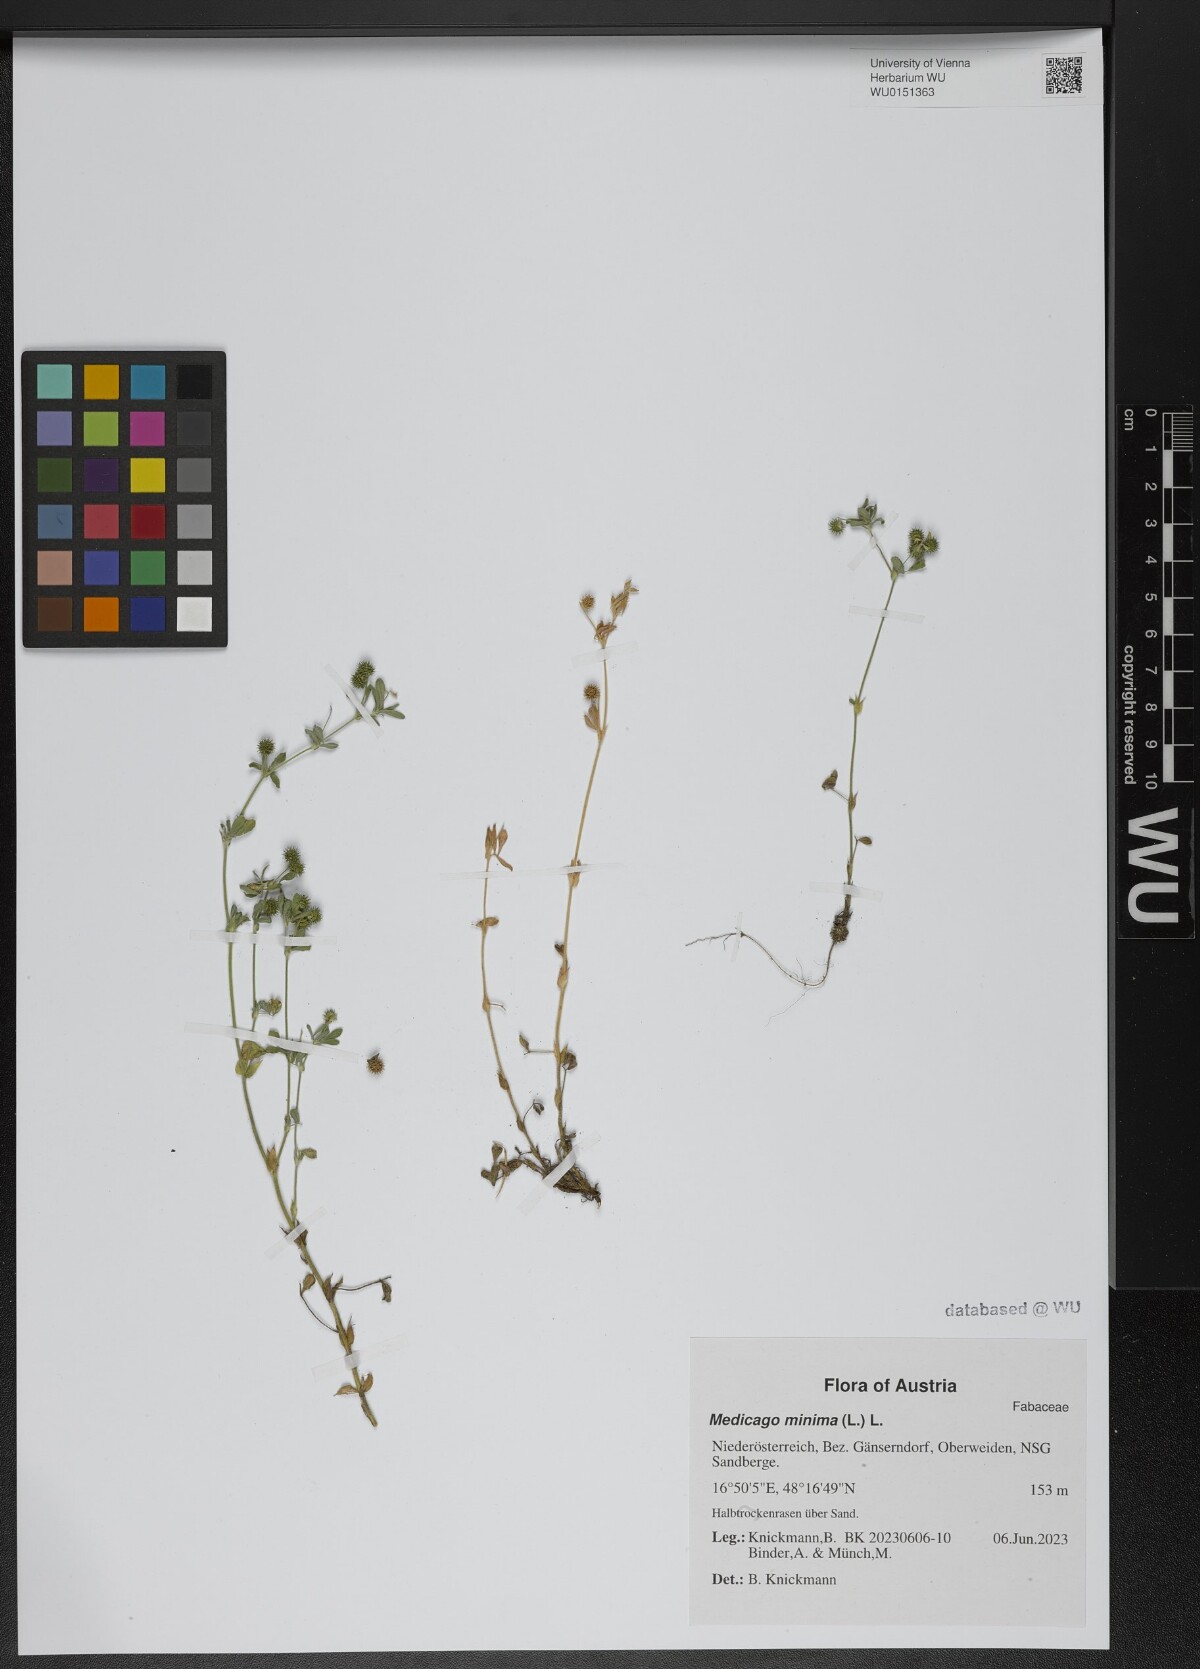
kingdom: Plantae
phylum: Tracheophyta
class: Magnoliopsida
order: Fabales
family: Fabaceae
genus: Medicago
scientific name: Medicago minima
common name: Little bur-clover
